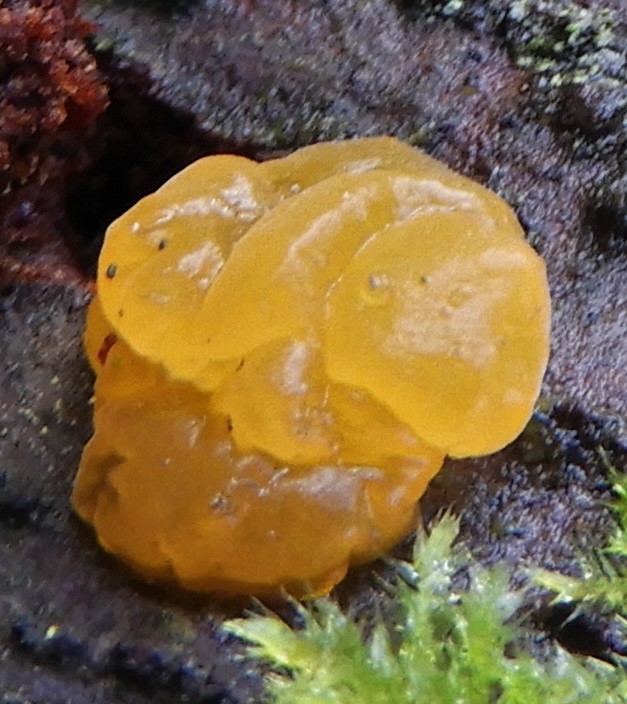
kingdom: Fungi
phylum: Basidiomycota
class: Dacrymycetes
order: Dacrymycetales
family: Dacrymycetaceae
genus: Dacrymyces
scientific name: Dacrymyces
